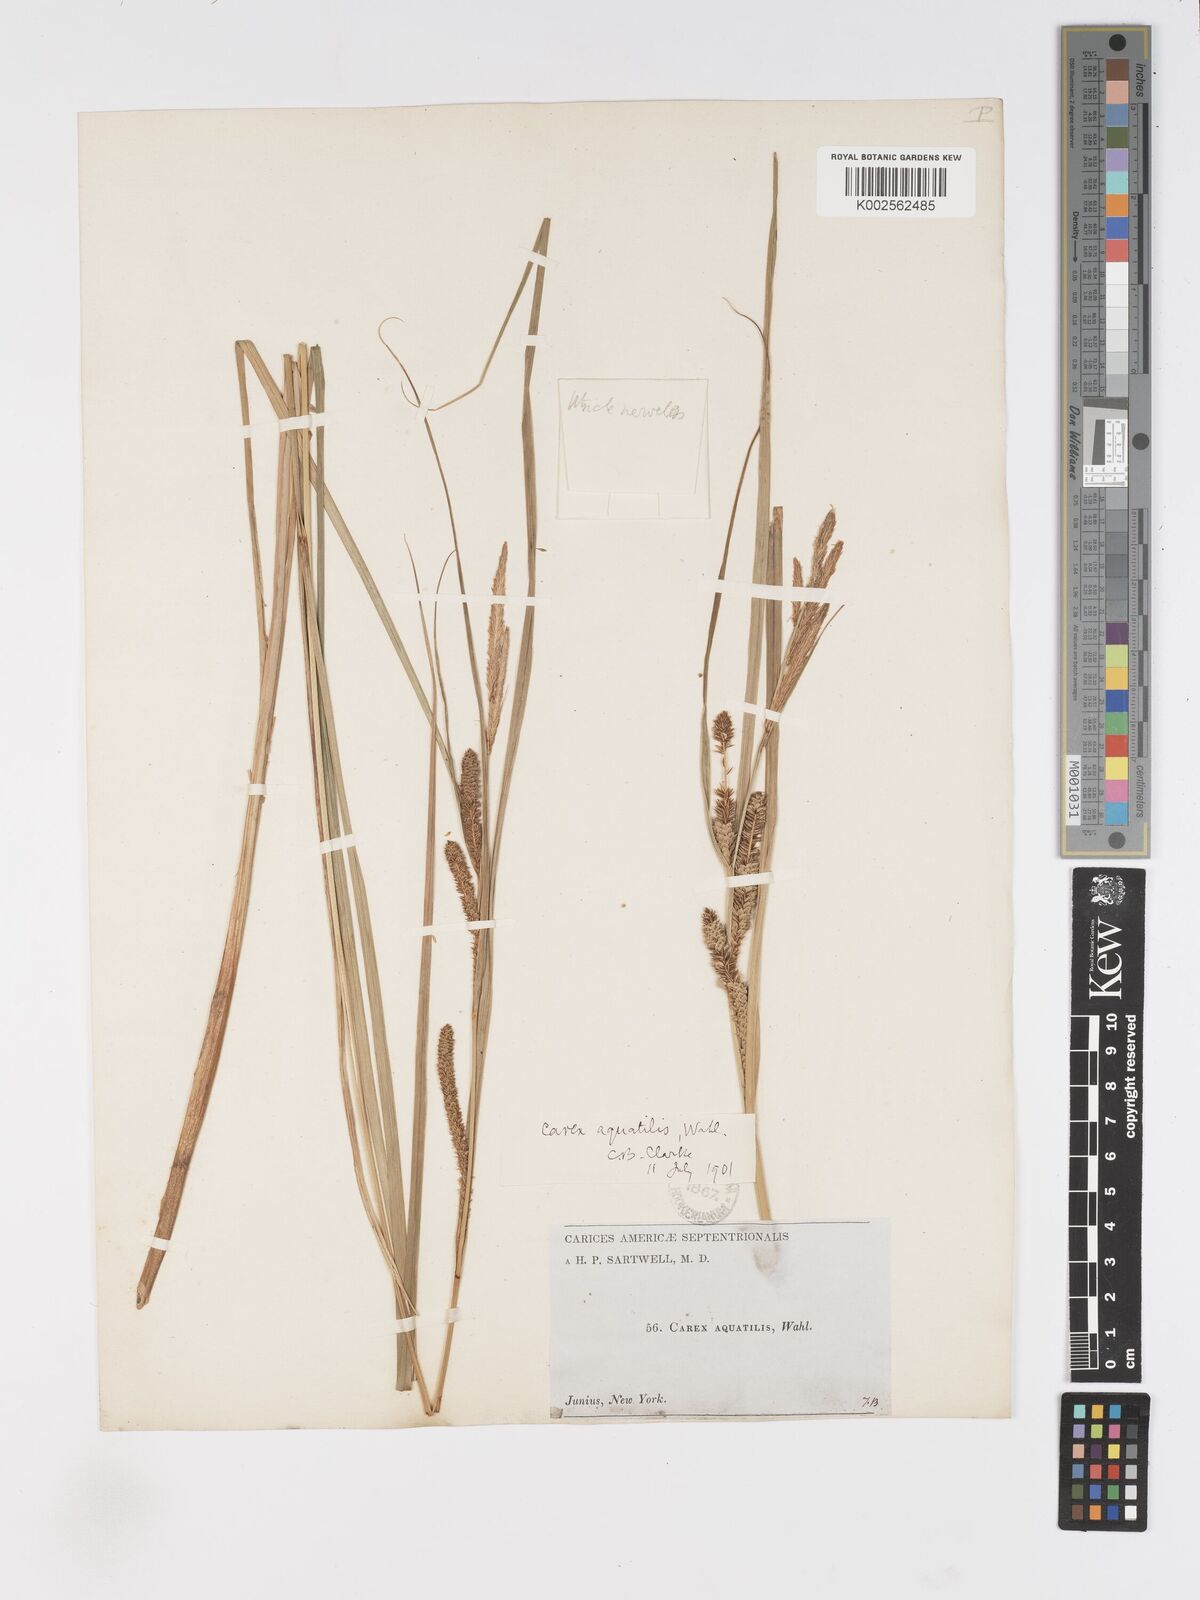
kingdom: Plantae
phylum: Tracheophyta
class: Liliopsida
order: Poales
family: Cyperaceae
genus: Carex
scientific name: Carex
